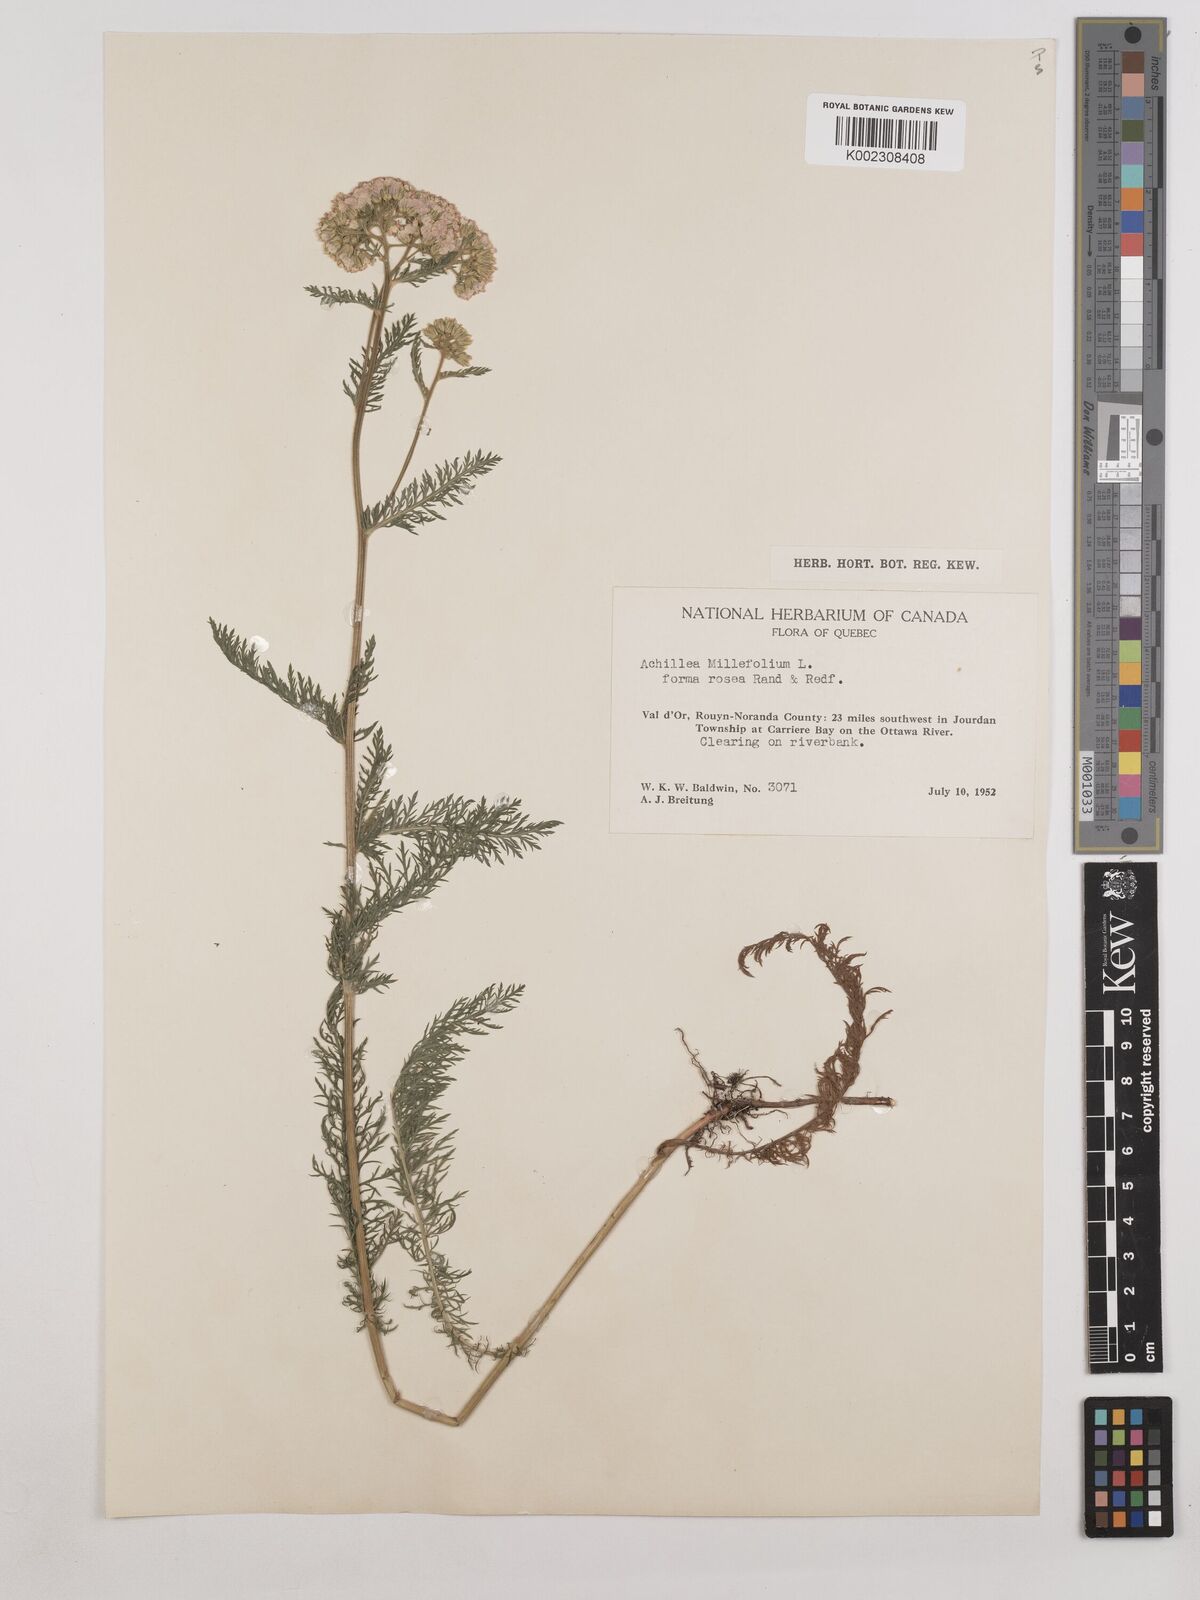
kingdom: Plantae
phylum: Tracheophyta
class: Magnoliopsida
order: Asterales
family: Asteraceae
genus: Achillea
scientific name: Achillea millefolium
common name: Yarrow
